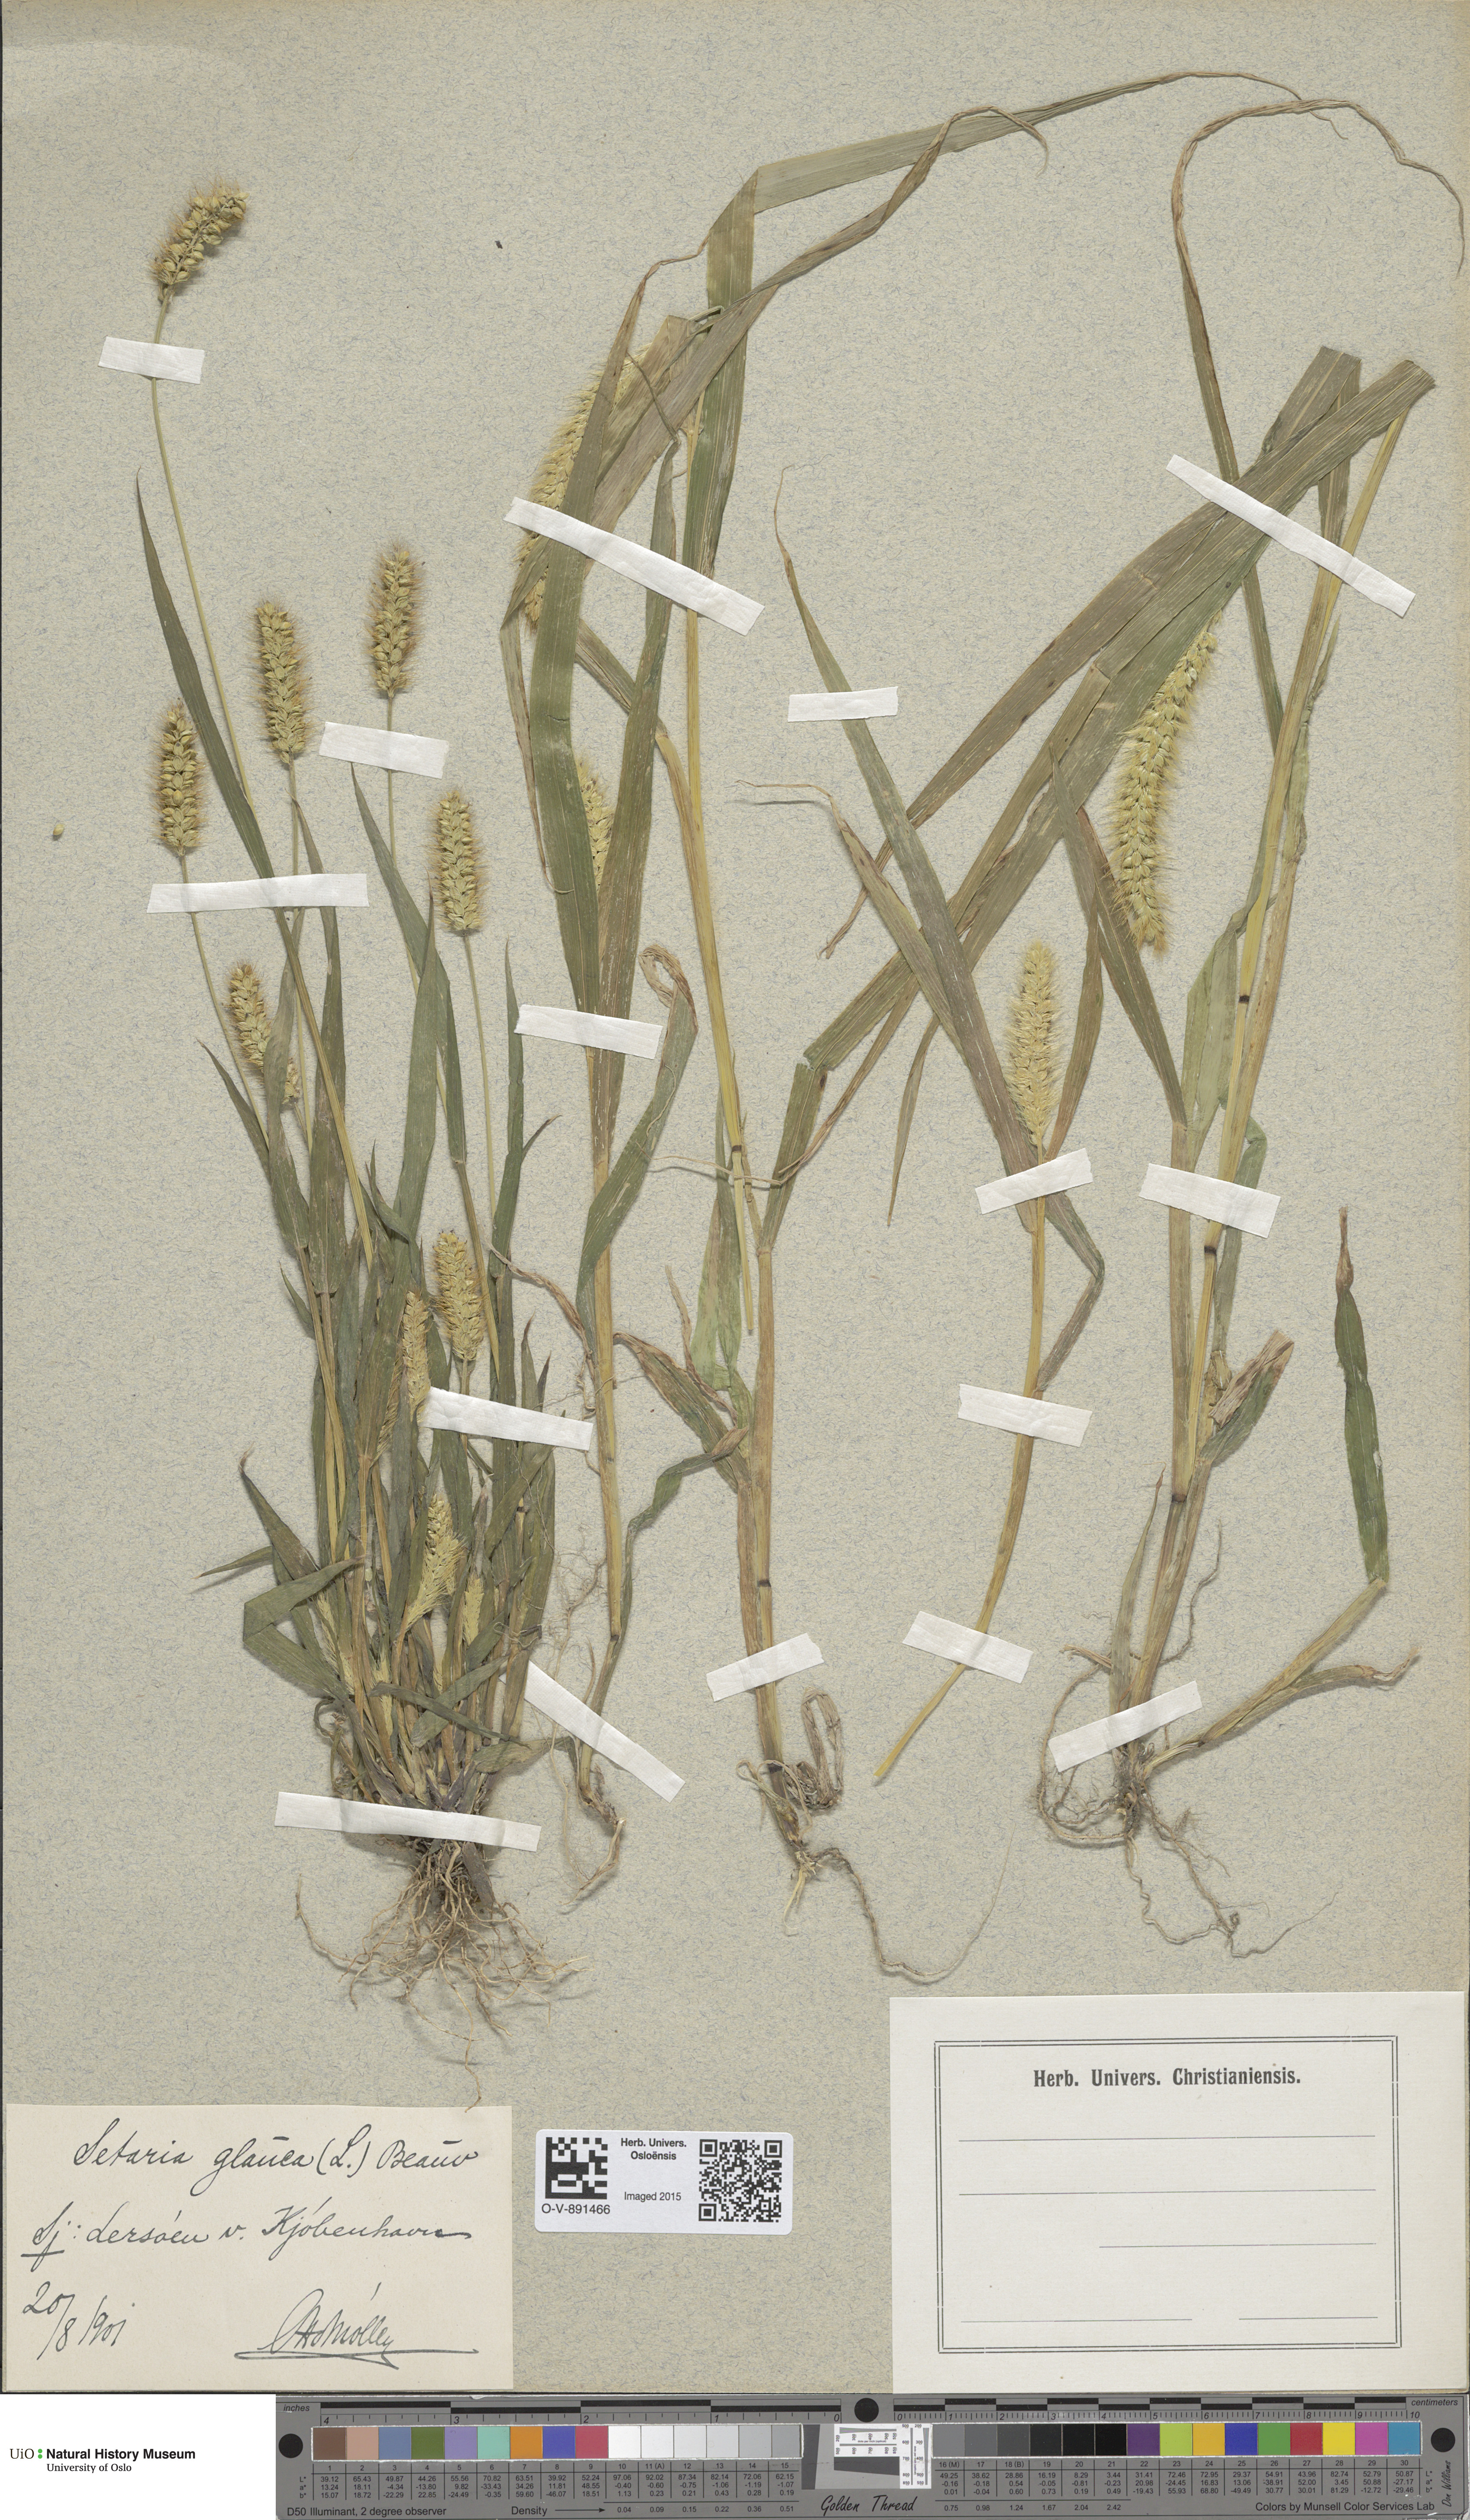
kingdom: Plantae
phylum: Tracheophyta
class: Liliopsida
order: Poales
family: Poaceae
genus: Setaria
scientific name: Setaria pumila
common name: Yellow bristle-grass
